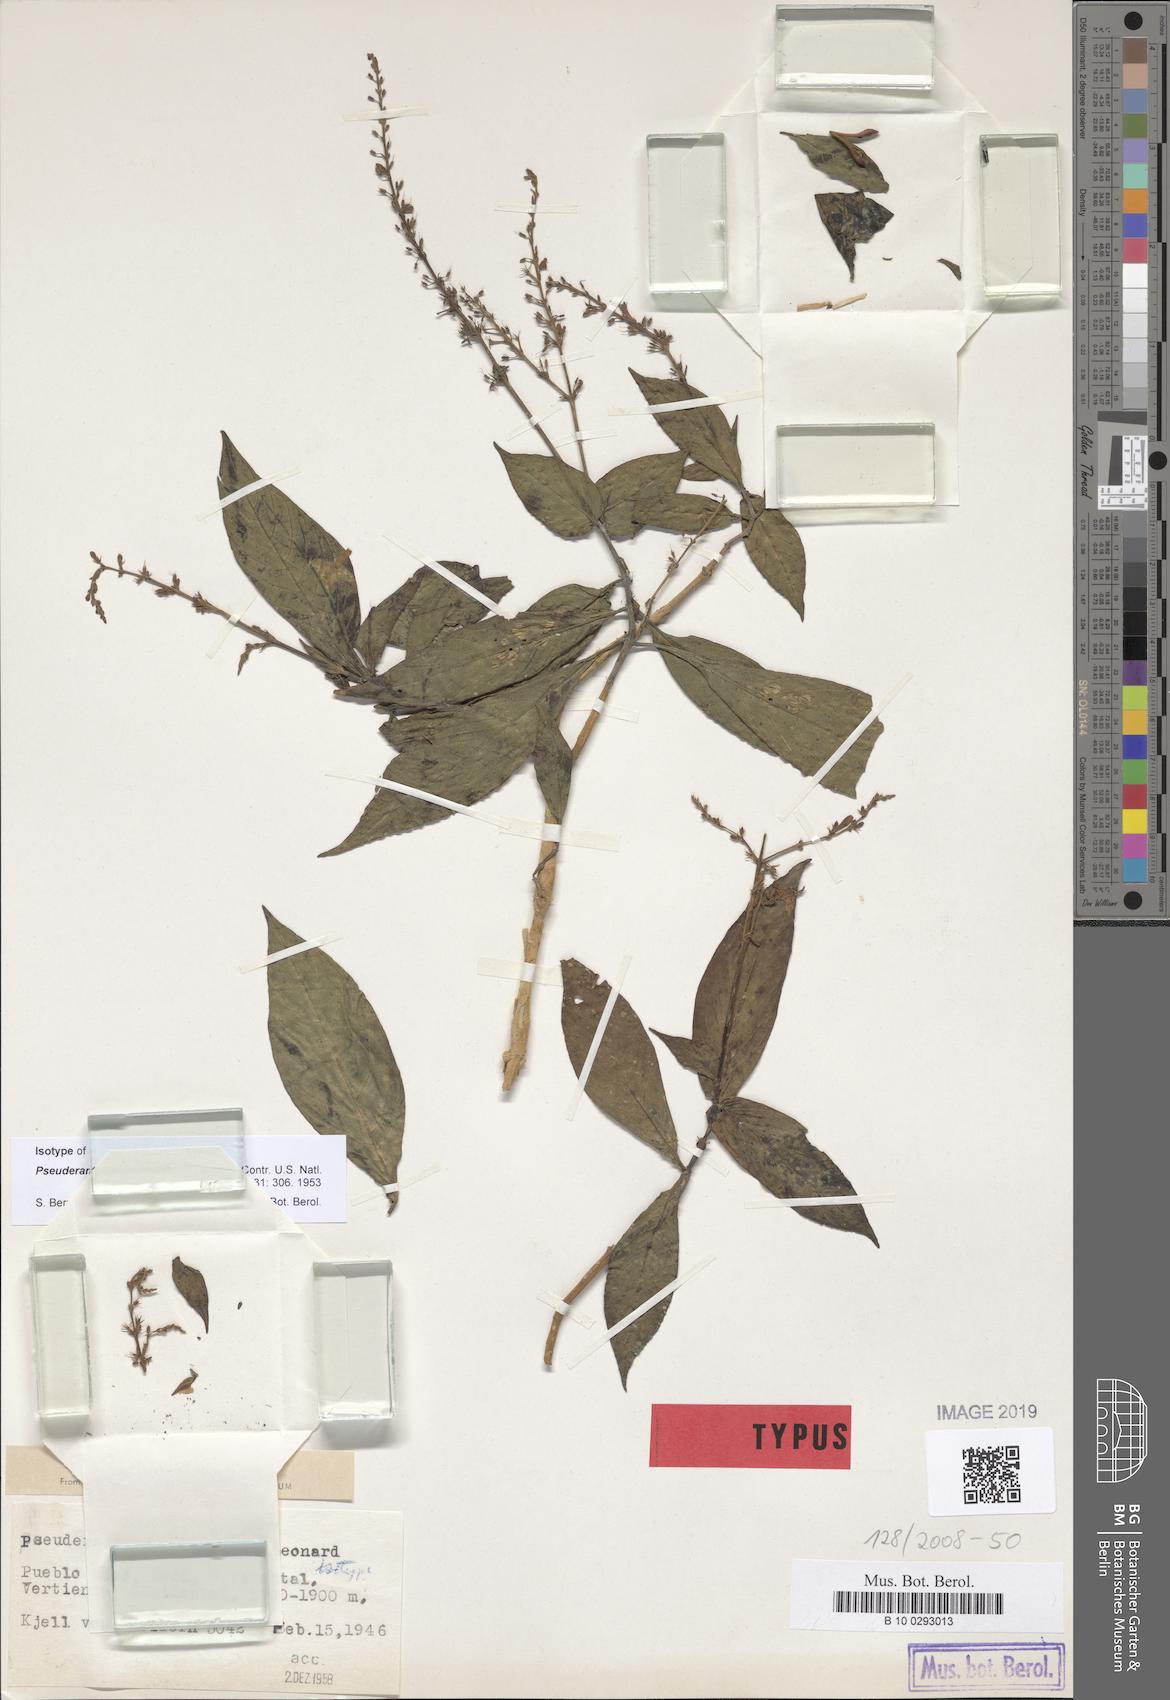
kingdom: Plantae
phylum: Tracheophyta
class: Magnoliopsida
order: Lamiales
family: Acanthaceae
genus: Pseuderanthemum
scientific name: Pseuderanthemum sneidernii
